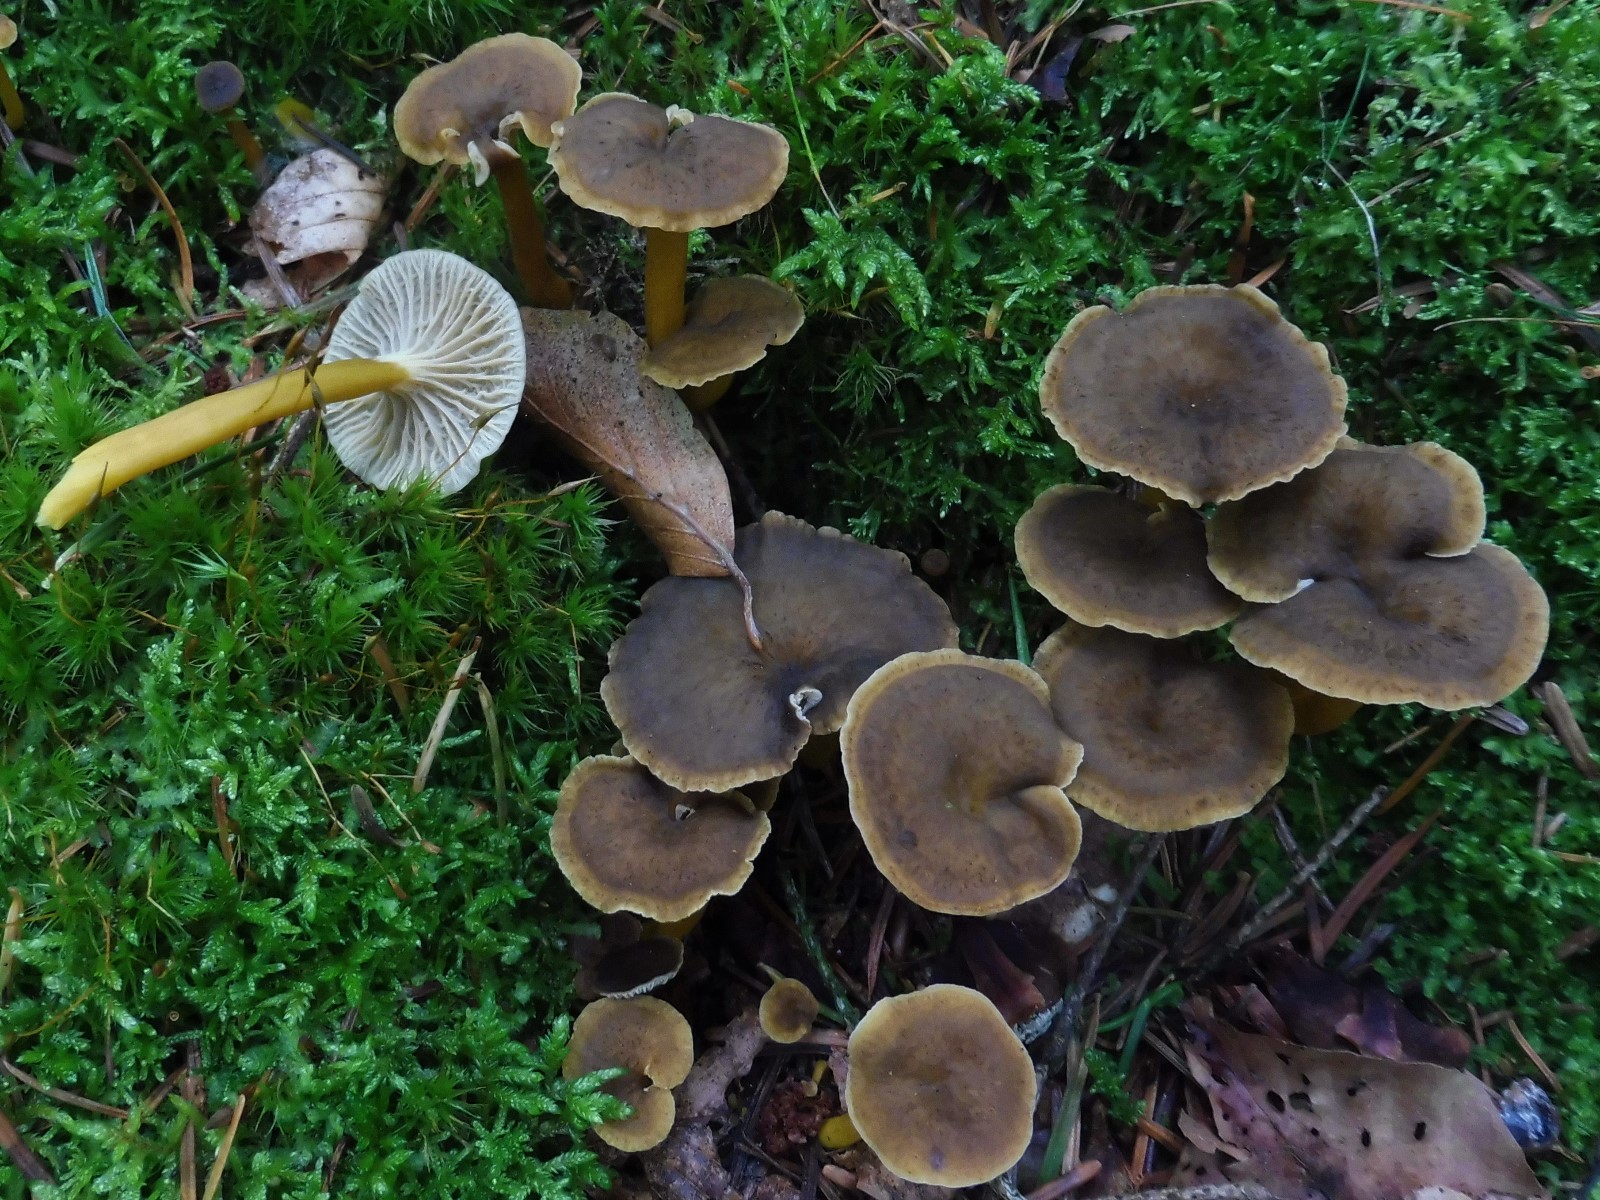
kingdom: Fungi
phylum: Basidiomycota
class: Agaricomycetes
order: Cantharellales
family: Hydnaceae
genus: Craterellus
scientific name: Craterellus tubaeformis
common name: tragt-kantarel
